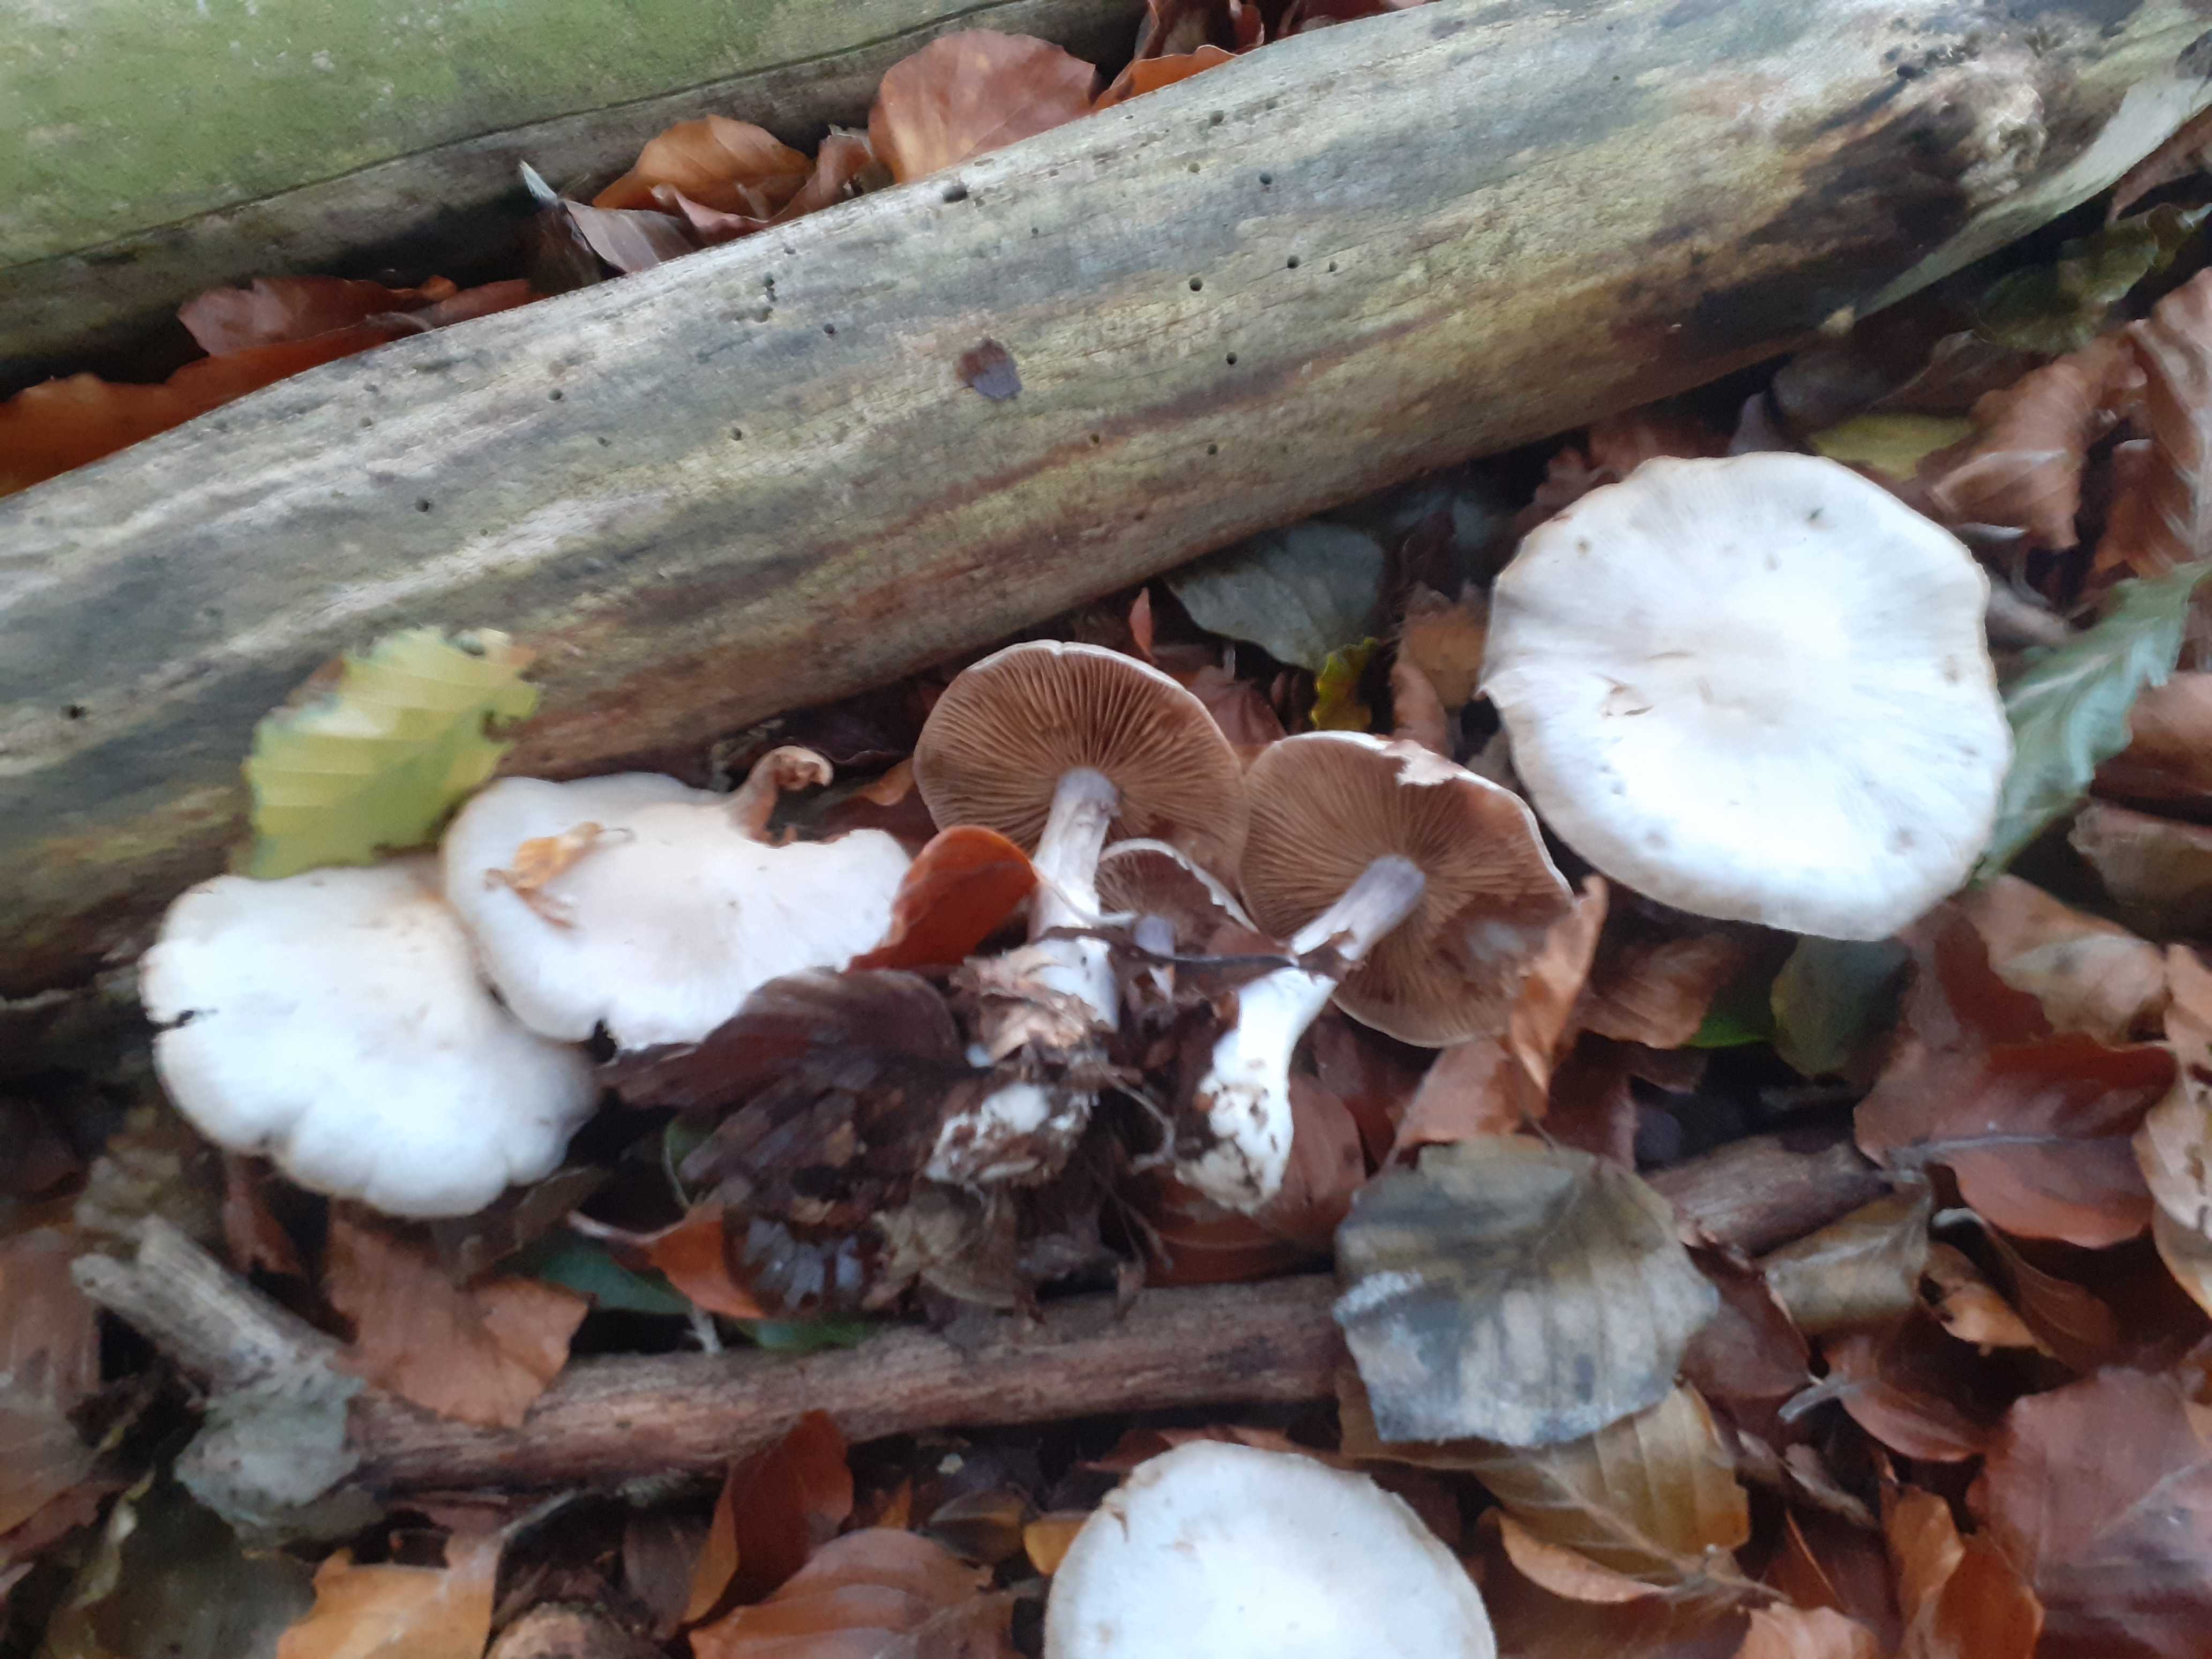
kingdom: Fungi
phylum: Basidiomycota
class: Agaricomycetes
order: Agaricales
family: Cortinariaceae
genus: Cortinarius
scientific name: Cortinarius alboviolaceus
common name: lysviolet slørhat
